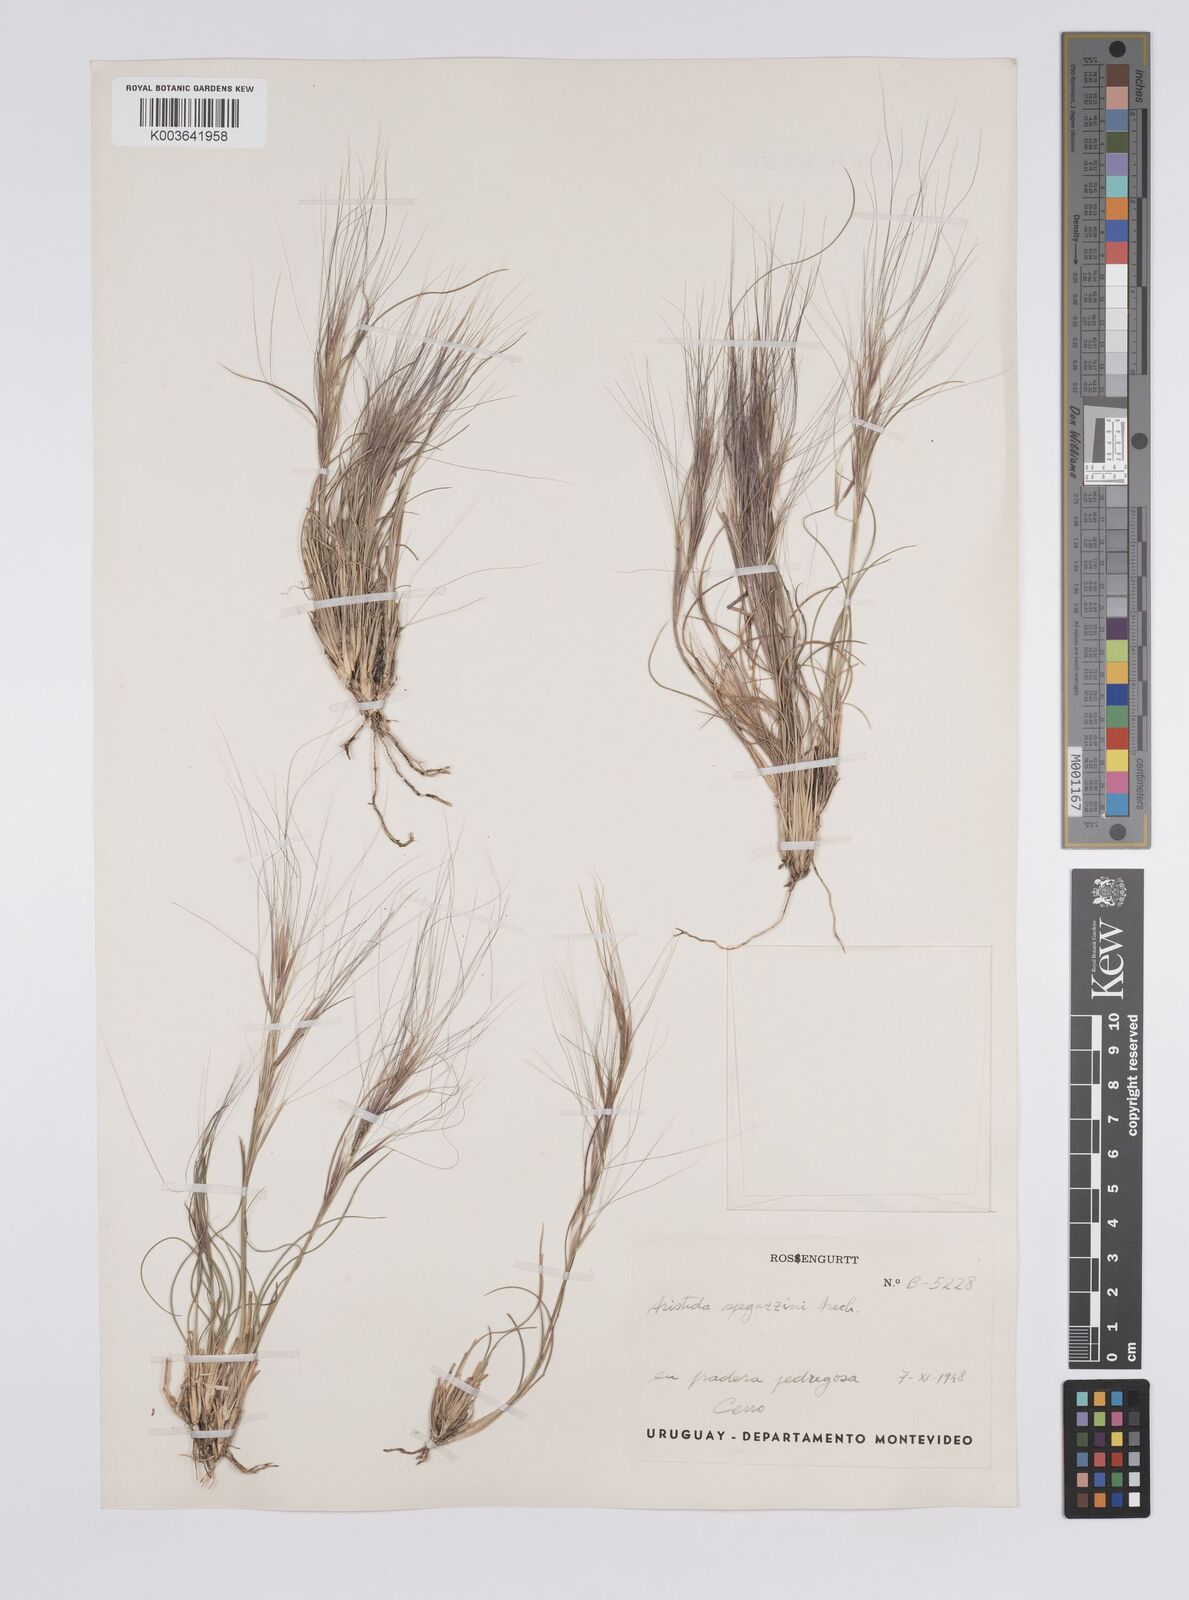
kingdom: Plantae
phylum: Tracheophyta
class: Liliopsida
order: Poales
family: Poaceae
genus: Aristida
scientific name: Aristida spegazzinii
